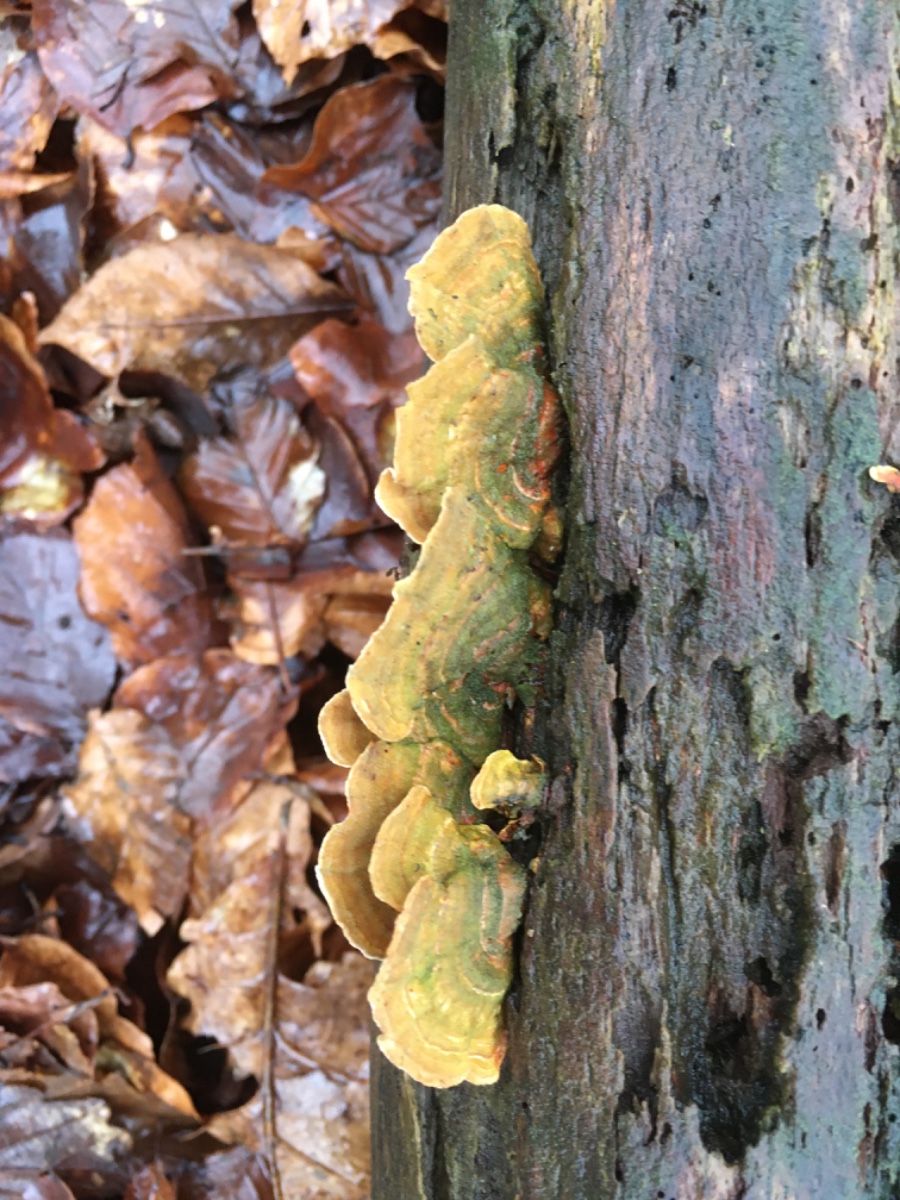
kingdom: Fungi
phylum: Basidiomycota
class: Agaricomycetes
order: Russulales
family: Stereaceae
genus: Stereum
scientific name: Stereum subtomentosum
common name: smuk lædersvamp
